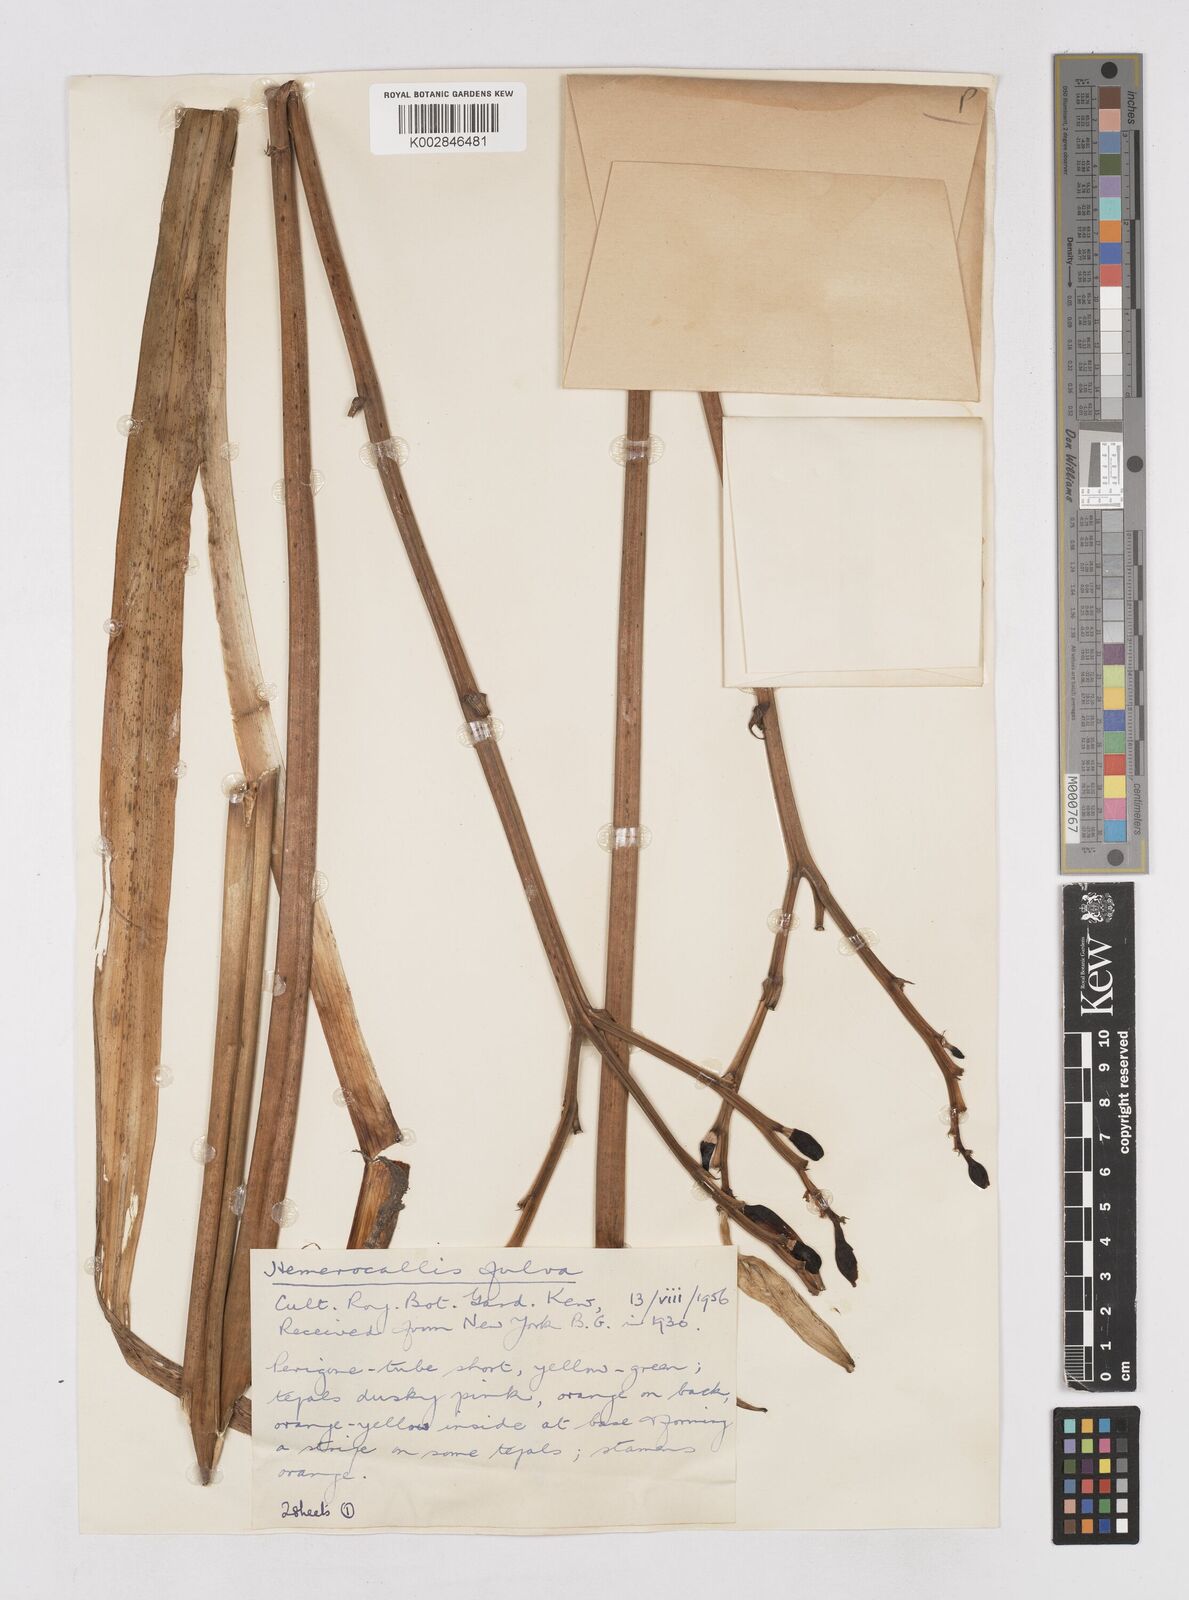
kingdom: Plantae
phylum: Tracheophyta
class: Liliopsida
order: Asparagales
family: Asphodelaceae
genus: Hemerocallis
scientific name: Hemerocallis lilioasphodelus
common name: Yellow day-lily
